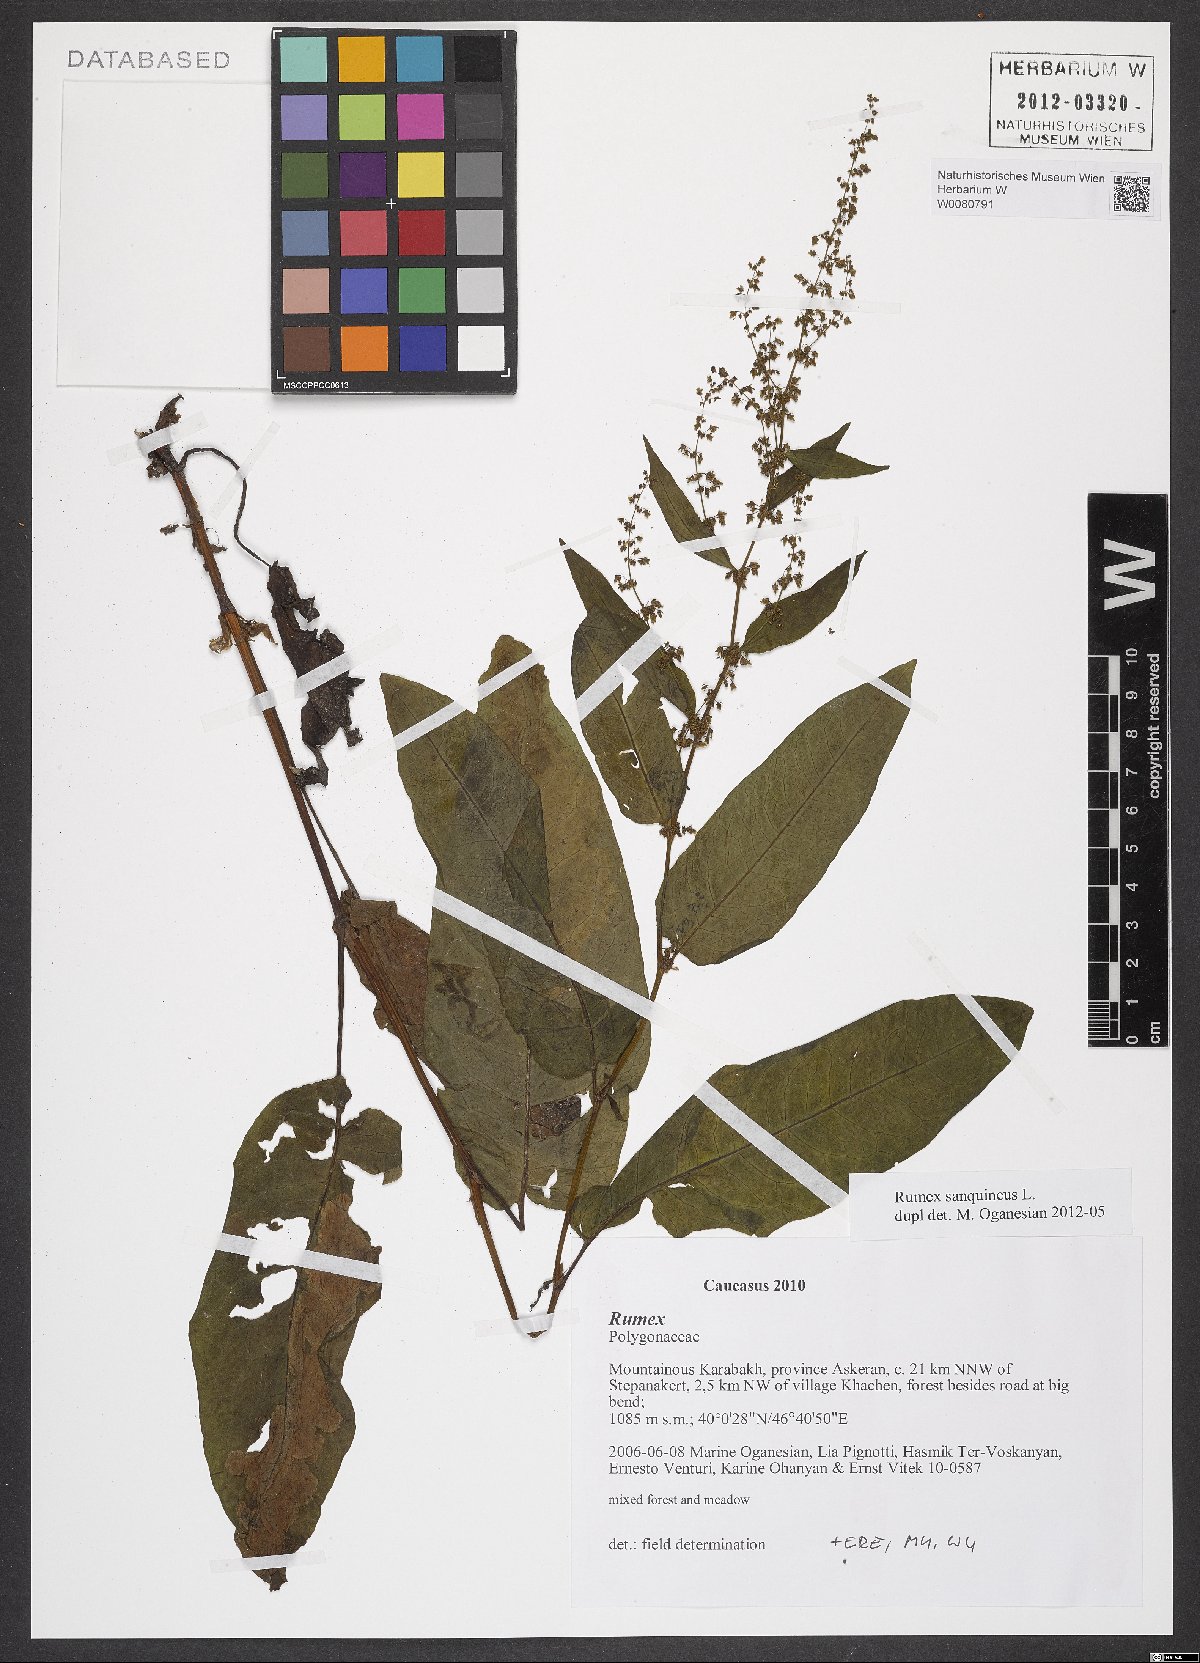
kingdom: Plantae
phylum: Tracheophyta
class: Magnoliopsida
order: Caryophyllales
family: Polygonaceae
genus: Rumex
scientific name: Rumex sanguineus
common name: Wood dock
